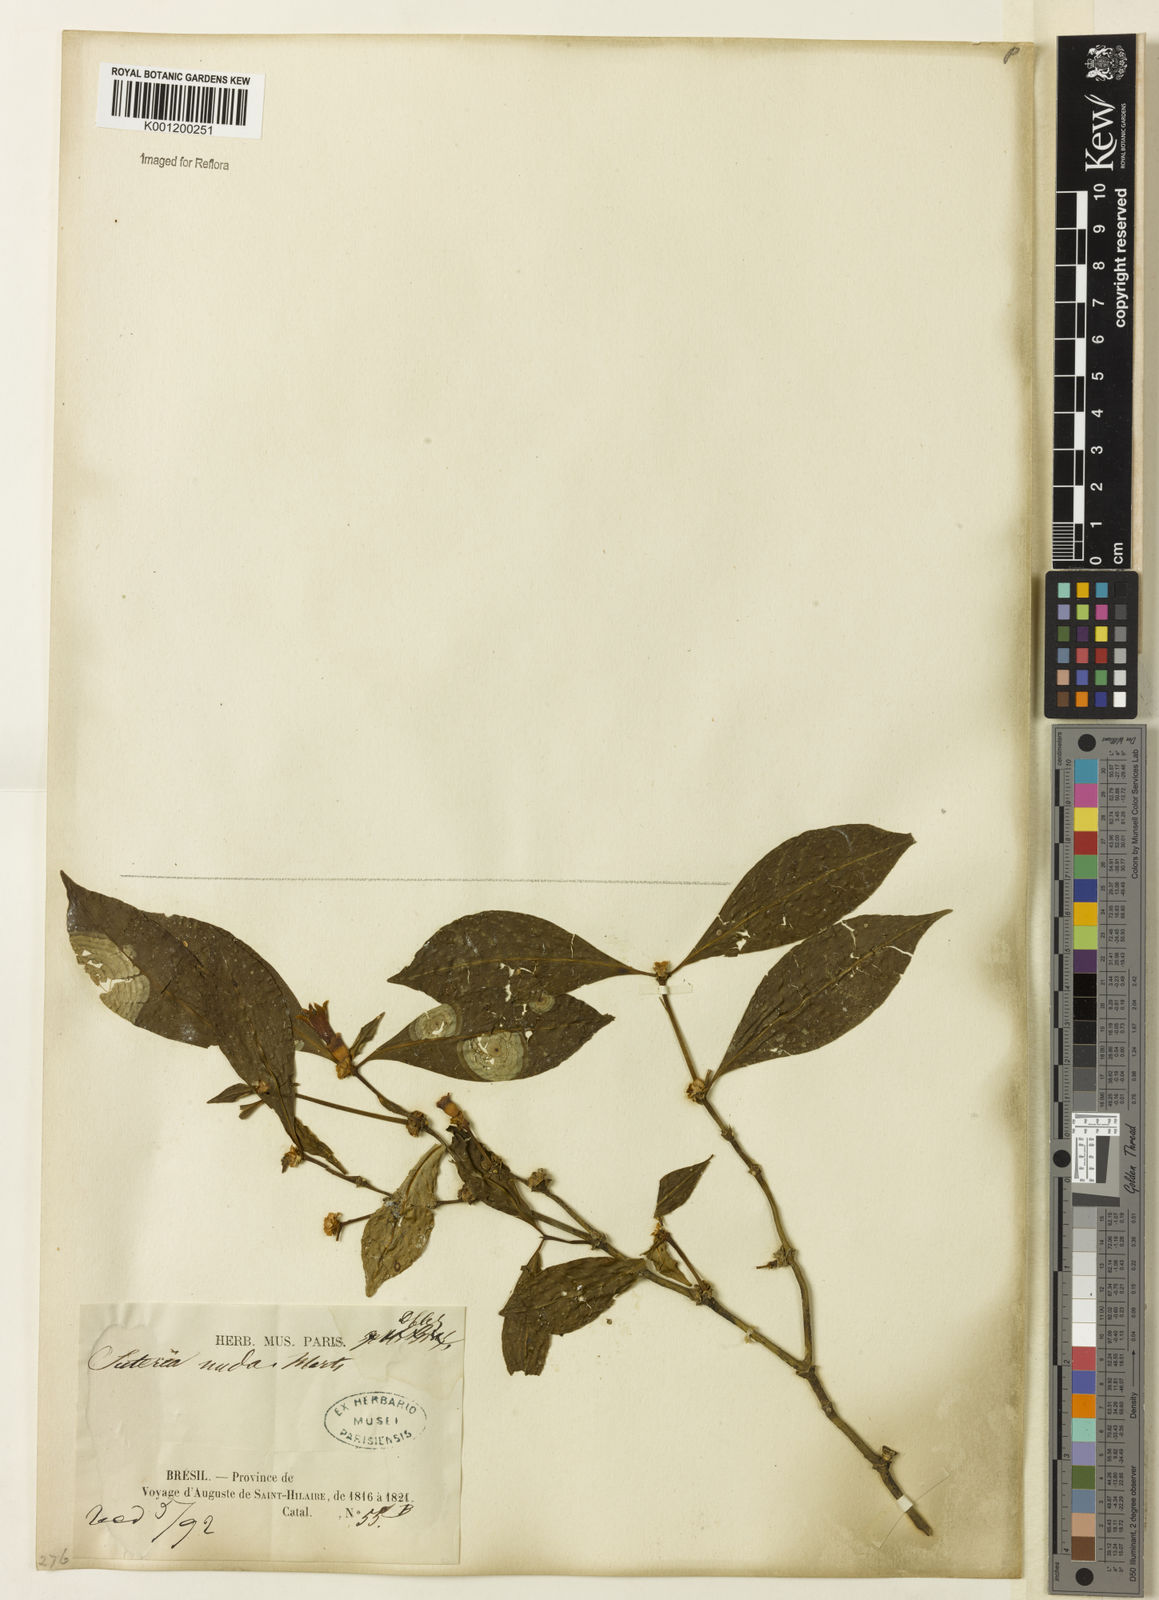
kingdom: Plantae
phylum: Tracheophyta
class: Magnoliopsida
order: Gentianales
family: Rubiaceae
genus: Psychotria
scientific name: Psychotria
